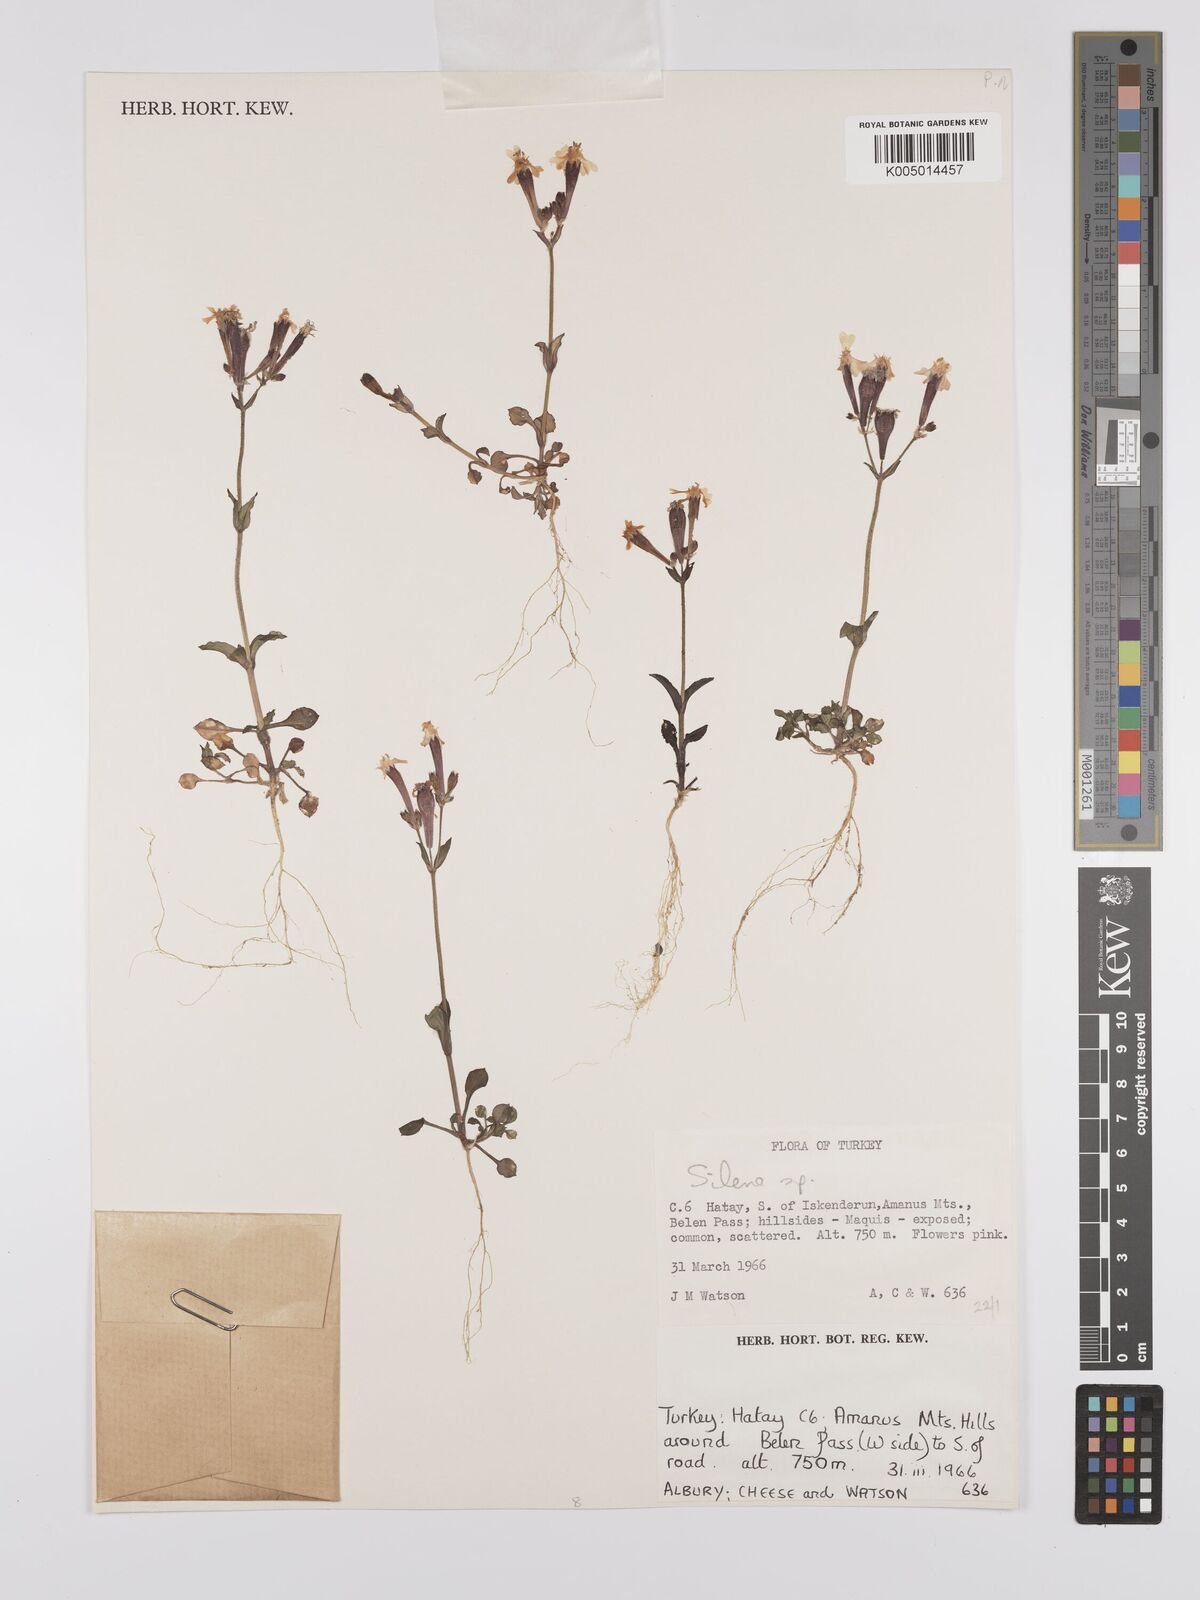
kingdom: Plantae
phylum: Tracheophyta
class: Magnoliopsida
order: Caryophyllales
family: Caryophyllaceae
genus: Silene
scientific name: Silene
